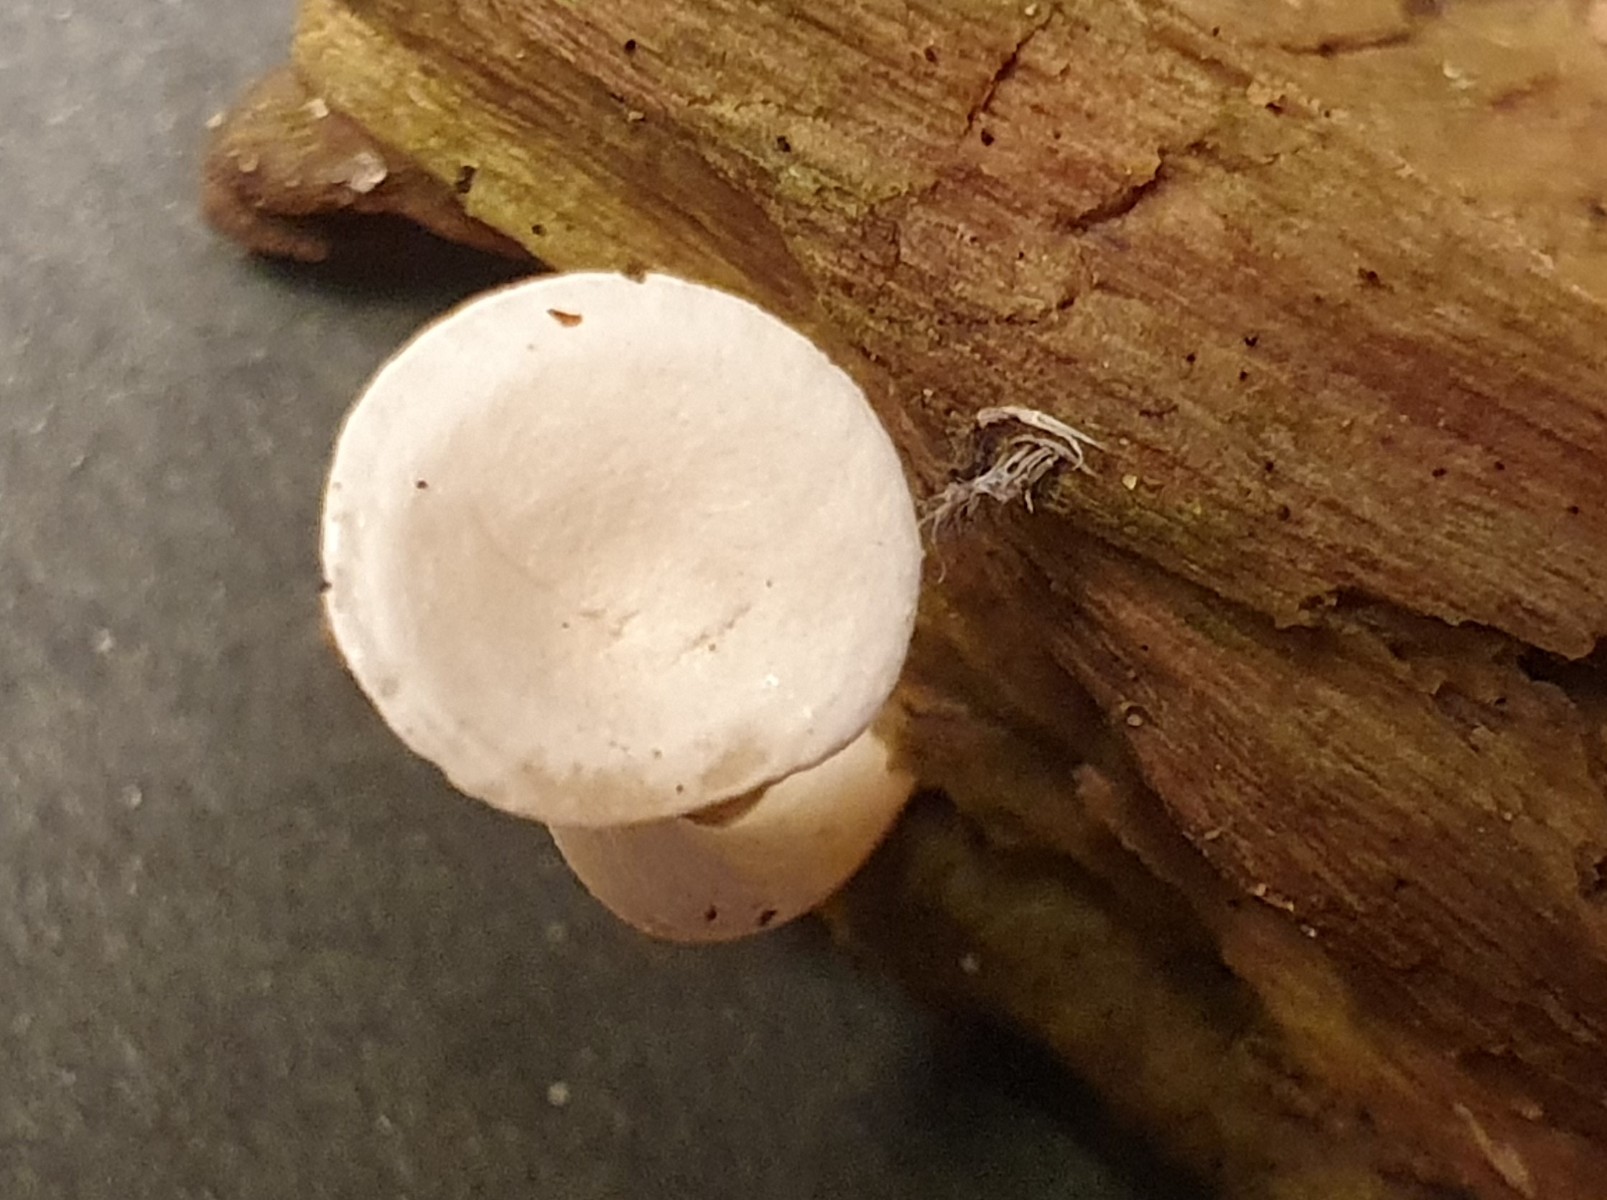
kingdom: Fungi
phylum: Basidiomycota
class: Agaricomycetes
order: Agaricales
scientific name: Agaricales
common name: champignonordenen
